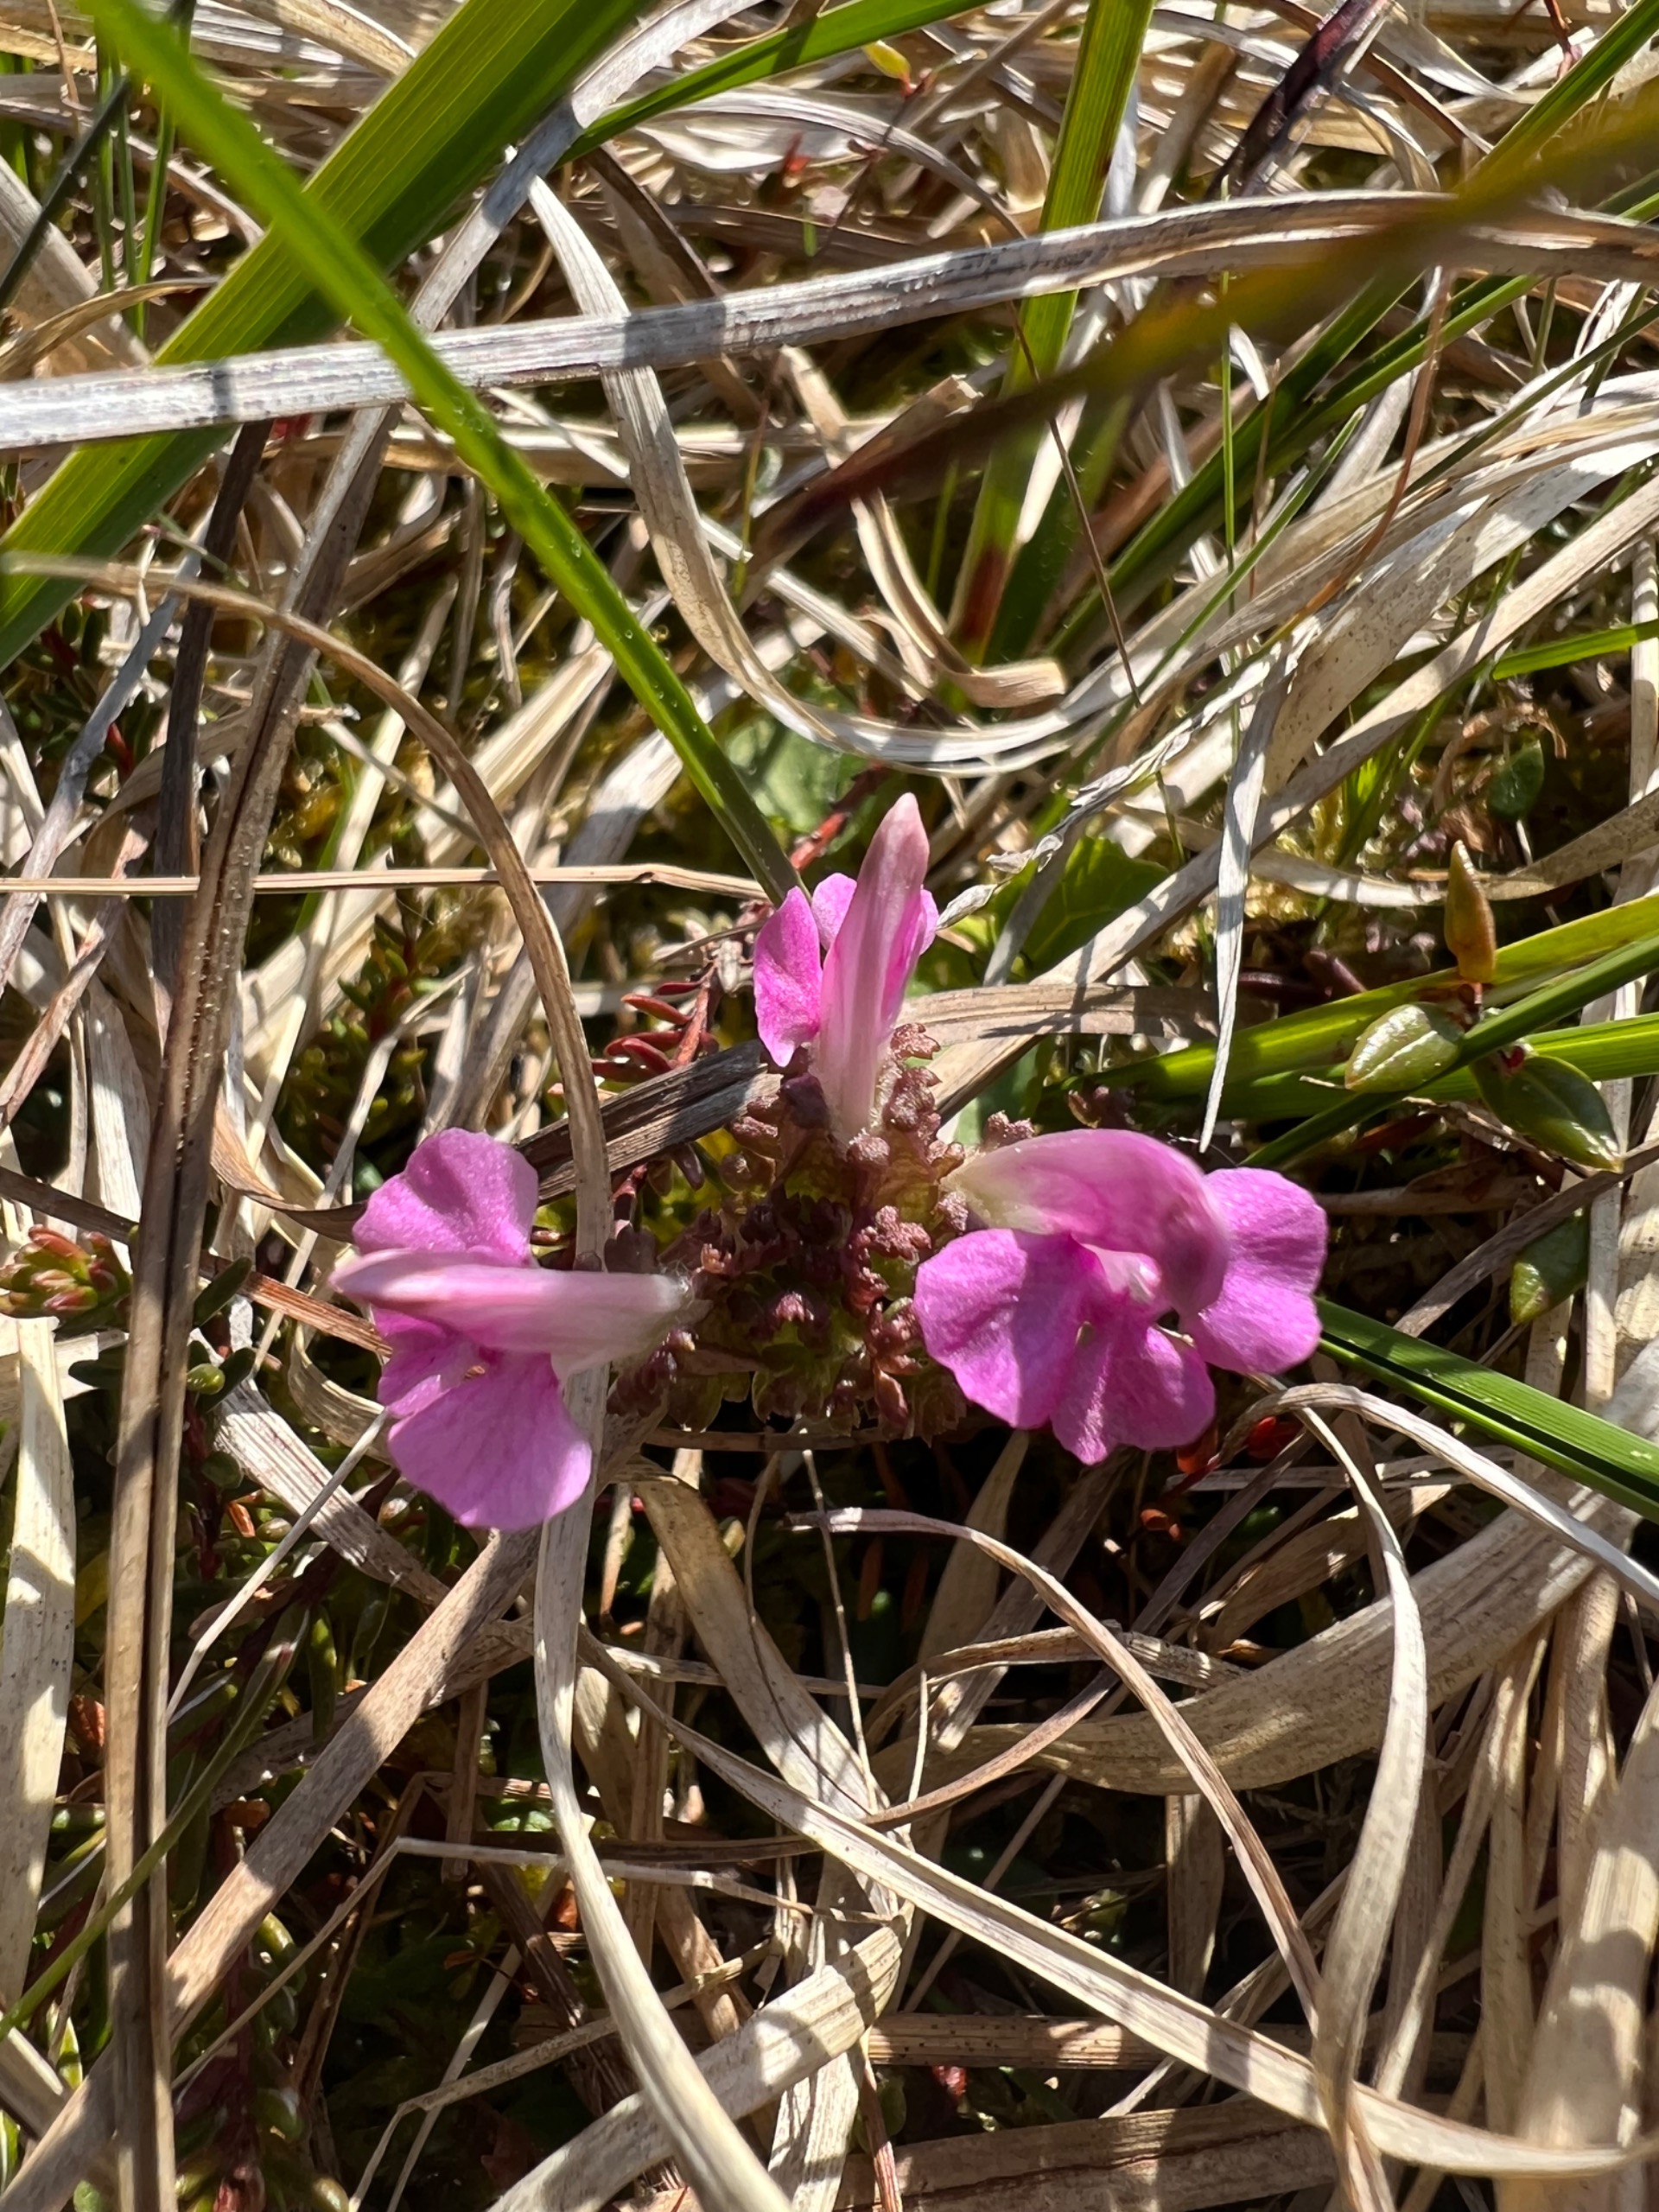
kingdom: Plantae
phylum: Tracheophyta
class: Magnoliopsida
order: Lamiales
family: Orobanchaceae
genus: Pedicularis
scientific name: Pedicularis sylvatica
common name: Mose-troldurt
